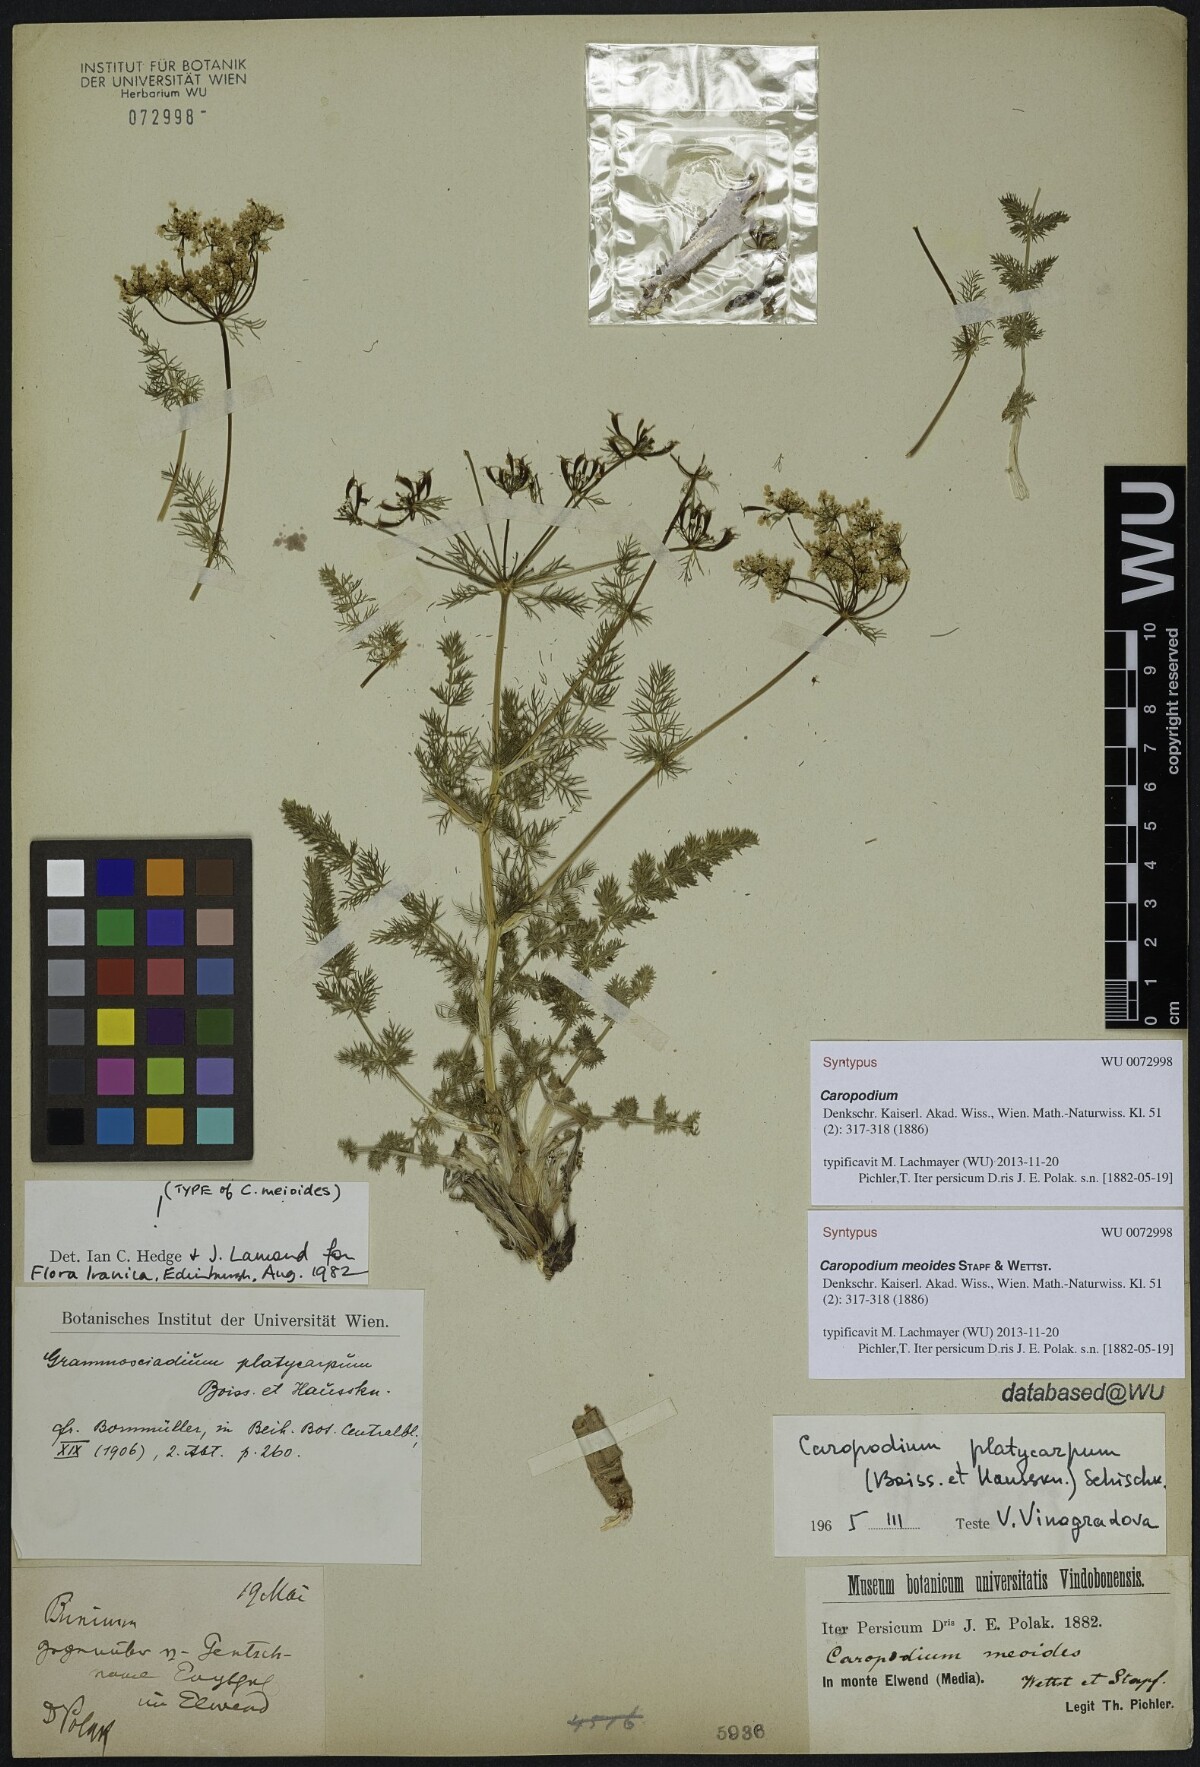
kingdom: Plantae
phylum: Tracheophyta
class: Magnoliopsida
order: Apiales
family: Apiaceae
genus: Chaerophyllum
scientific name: Chaerophyllum macrospermum
